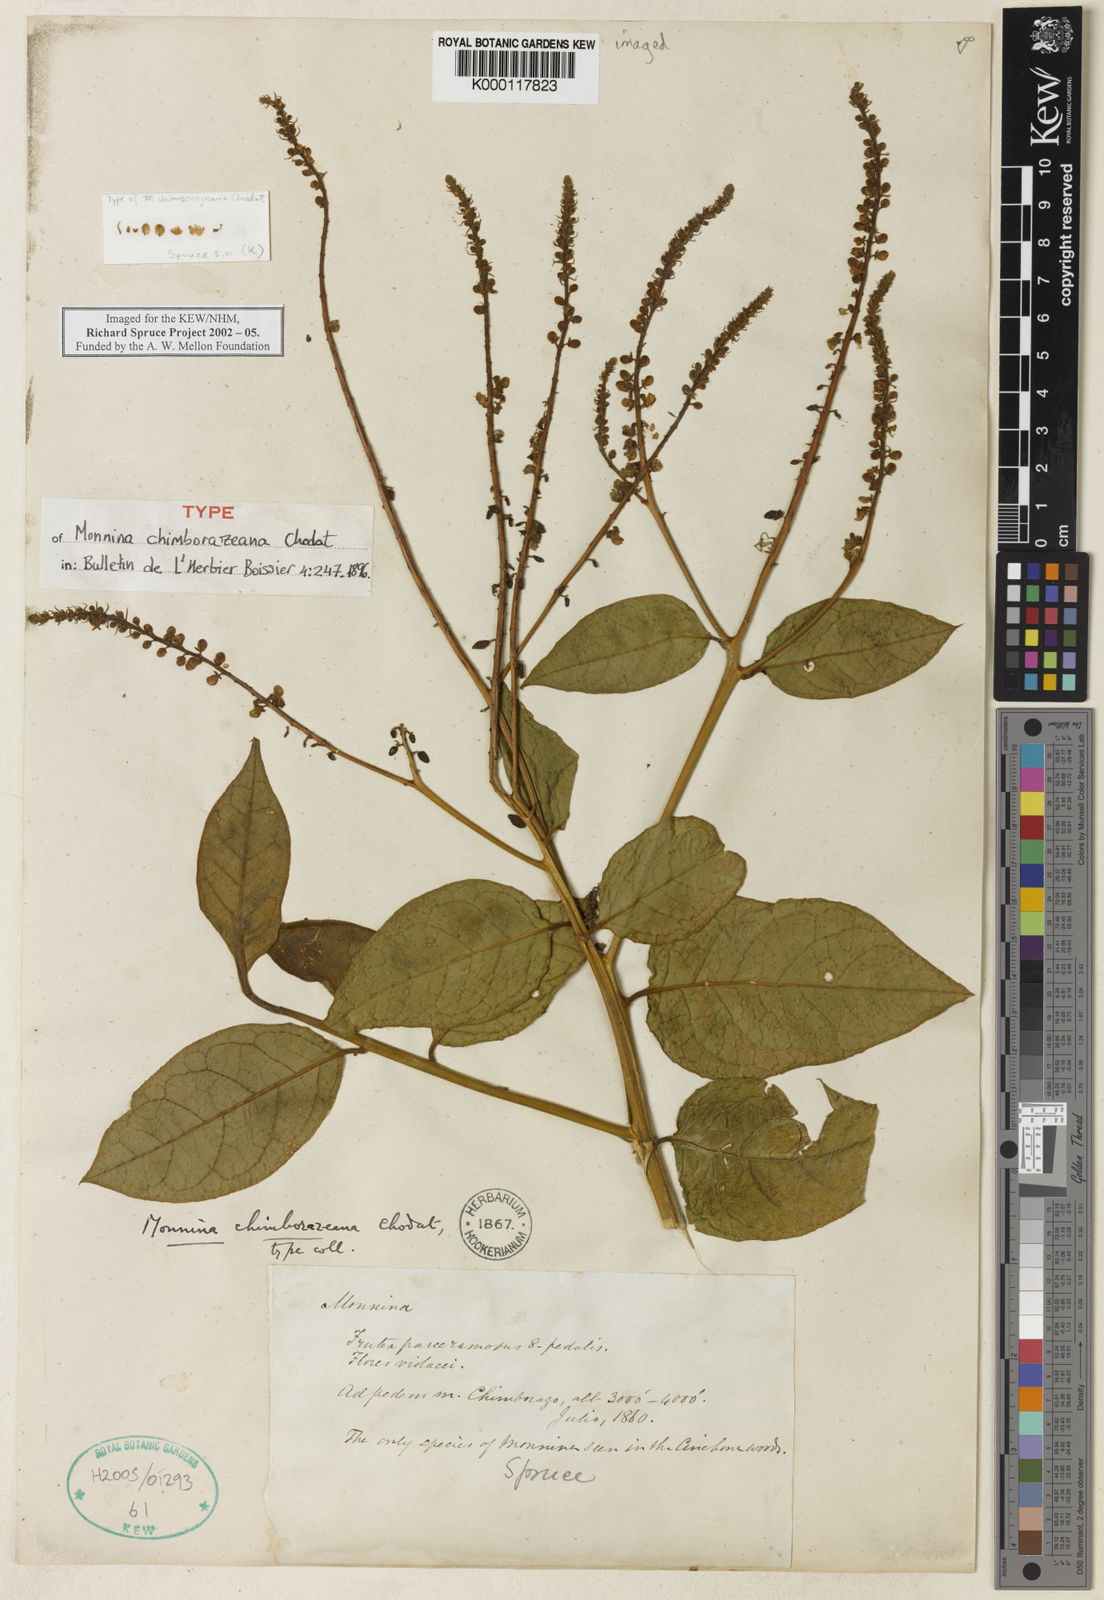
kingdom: Plantae
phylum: Tracheophyta
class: Magnoliopsida
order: Fabales
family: Polygalaceae
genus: Monnina
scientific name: Monnina chimborazeana
